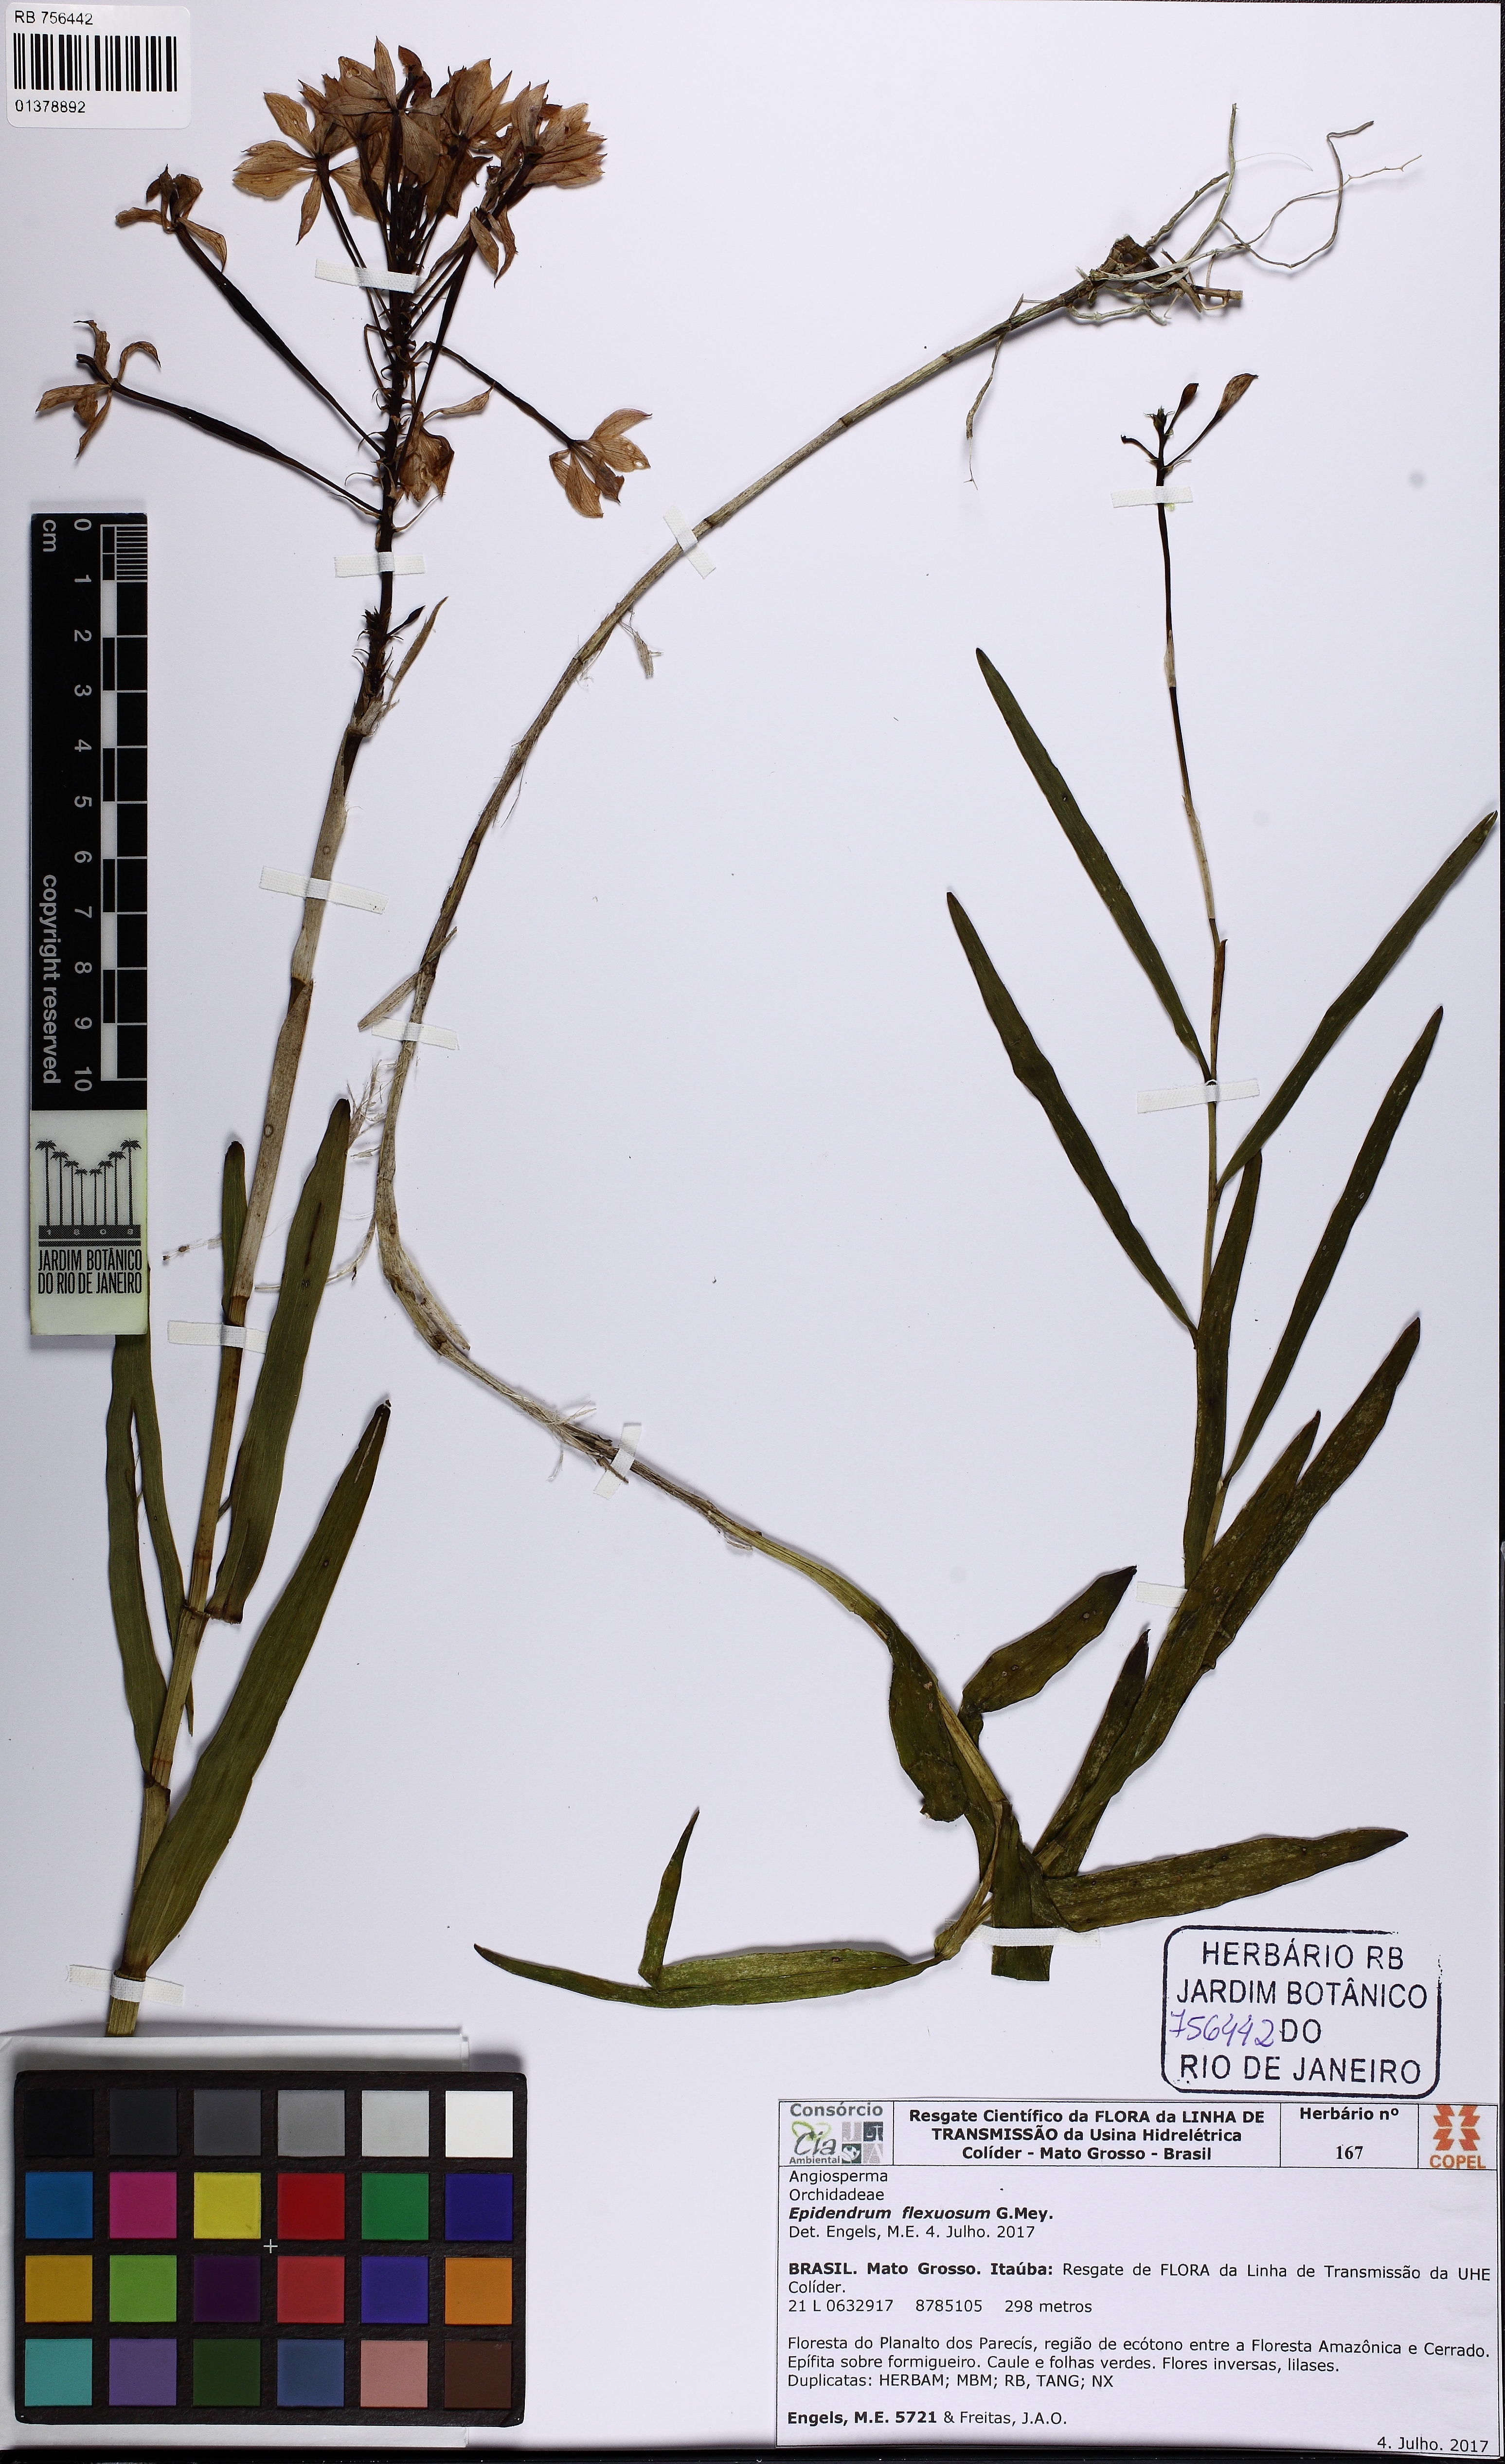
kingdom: Plantae
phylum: Tracheophyta
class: Liliopsida
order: Asparagales
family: Orchidaceae
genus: Epidendrum
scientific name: Epidendrum flexuosum
